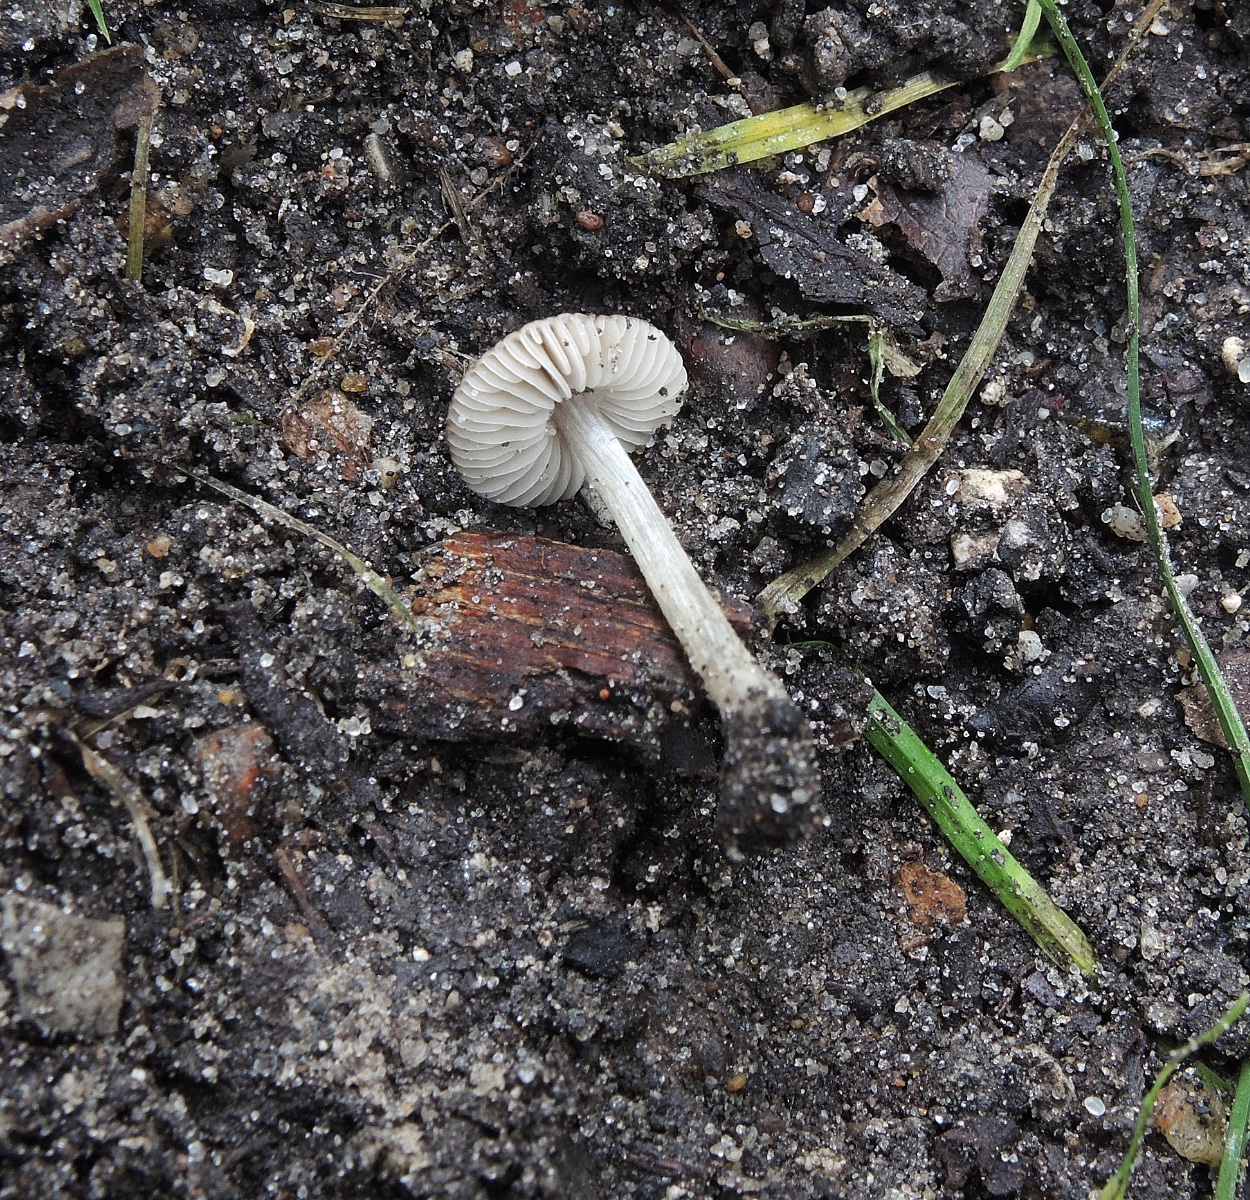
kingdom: Fungi
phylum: Basidiomycota
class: Agaricomycetes
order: Agaricales
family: Pluteaceae
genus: Pluteus
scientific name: Pluteus podospileus
